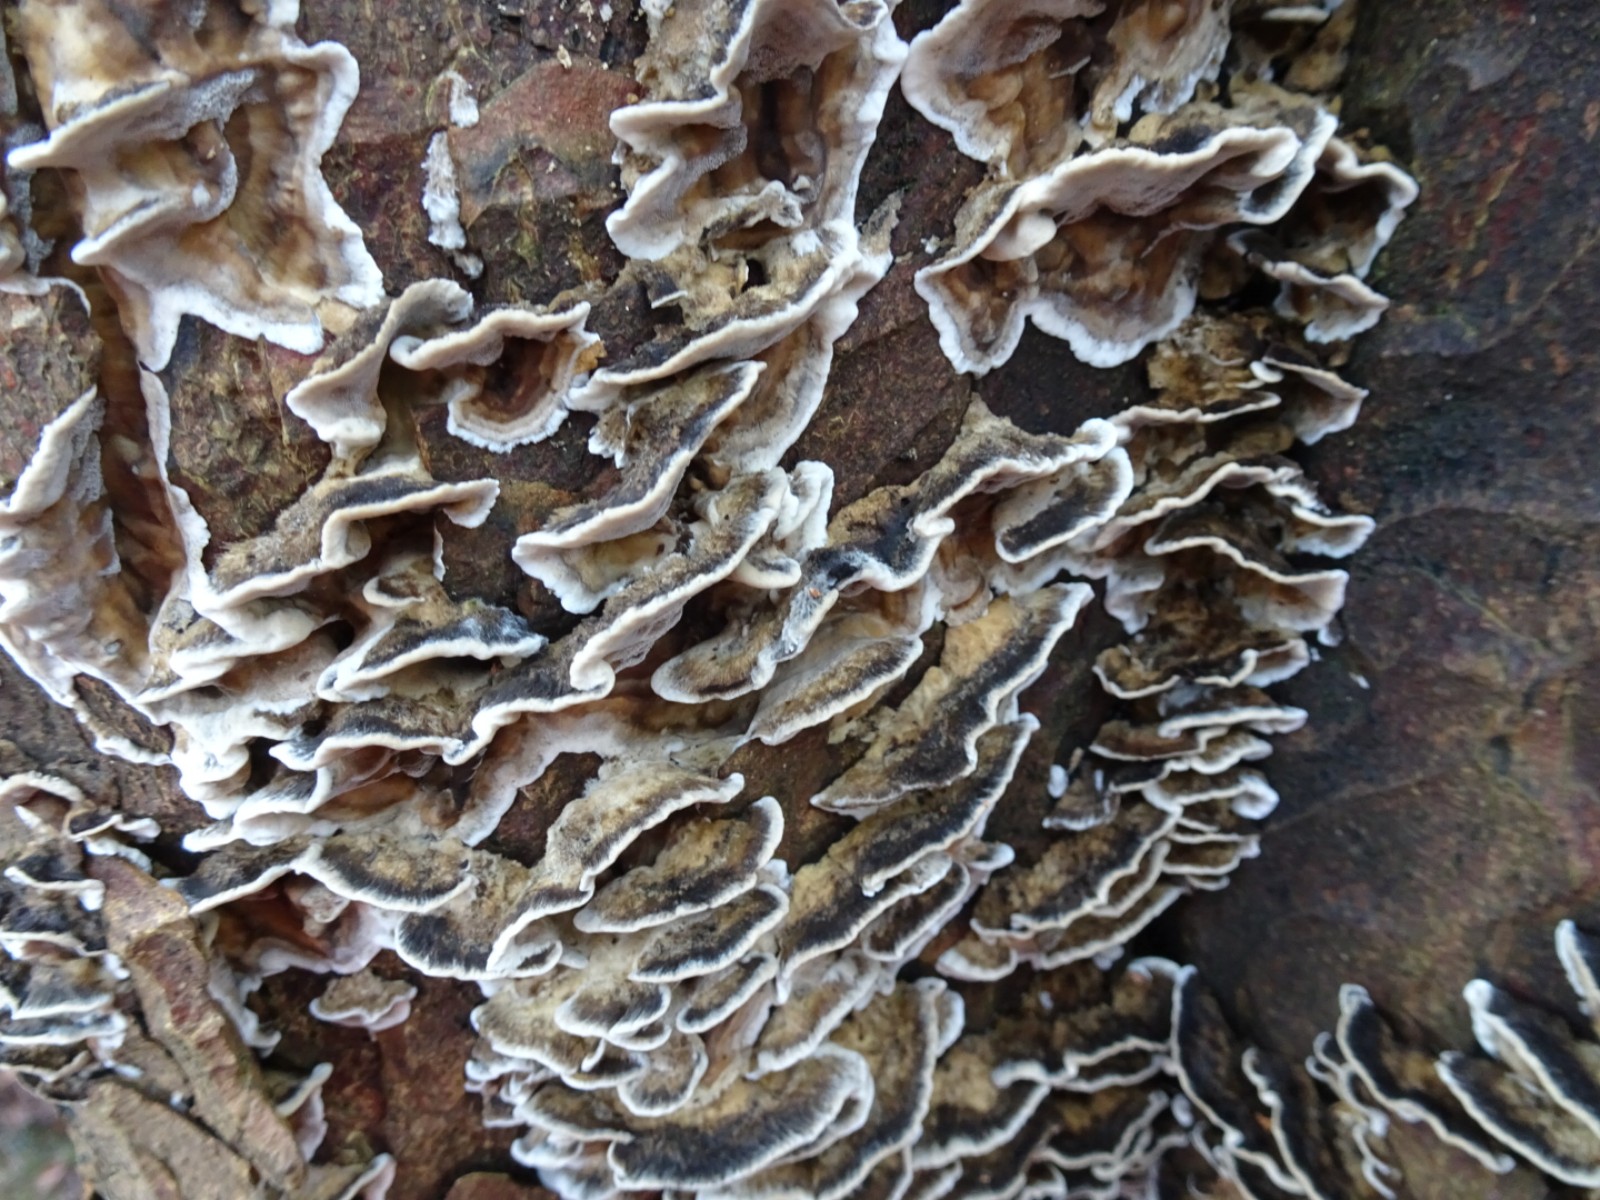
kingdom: Fungi
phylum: Basidiomycota
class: Agaricomycetes
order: Polyporales
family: Phanerochaetaceae
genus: Bjerkandera
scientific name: Bjerkandera adusta
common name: sveden sodporesvamp
